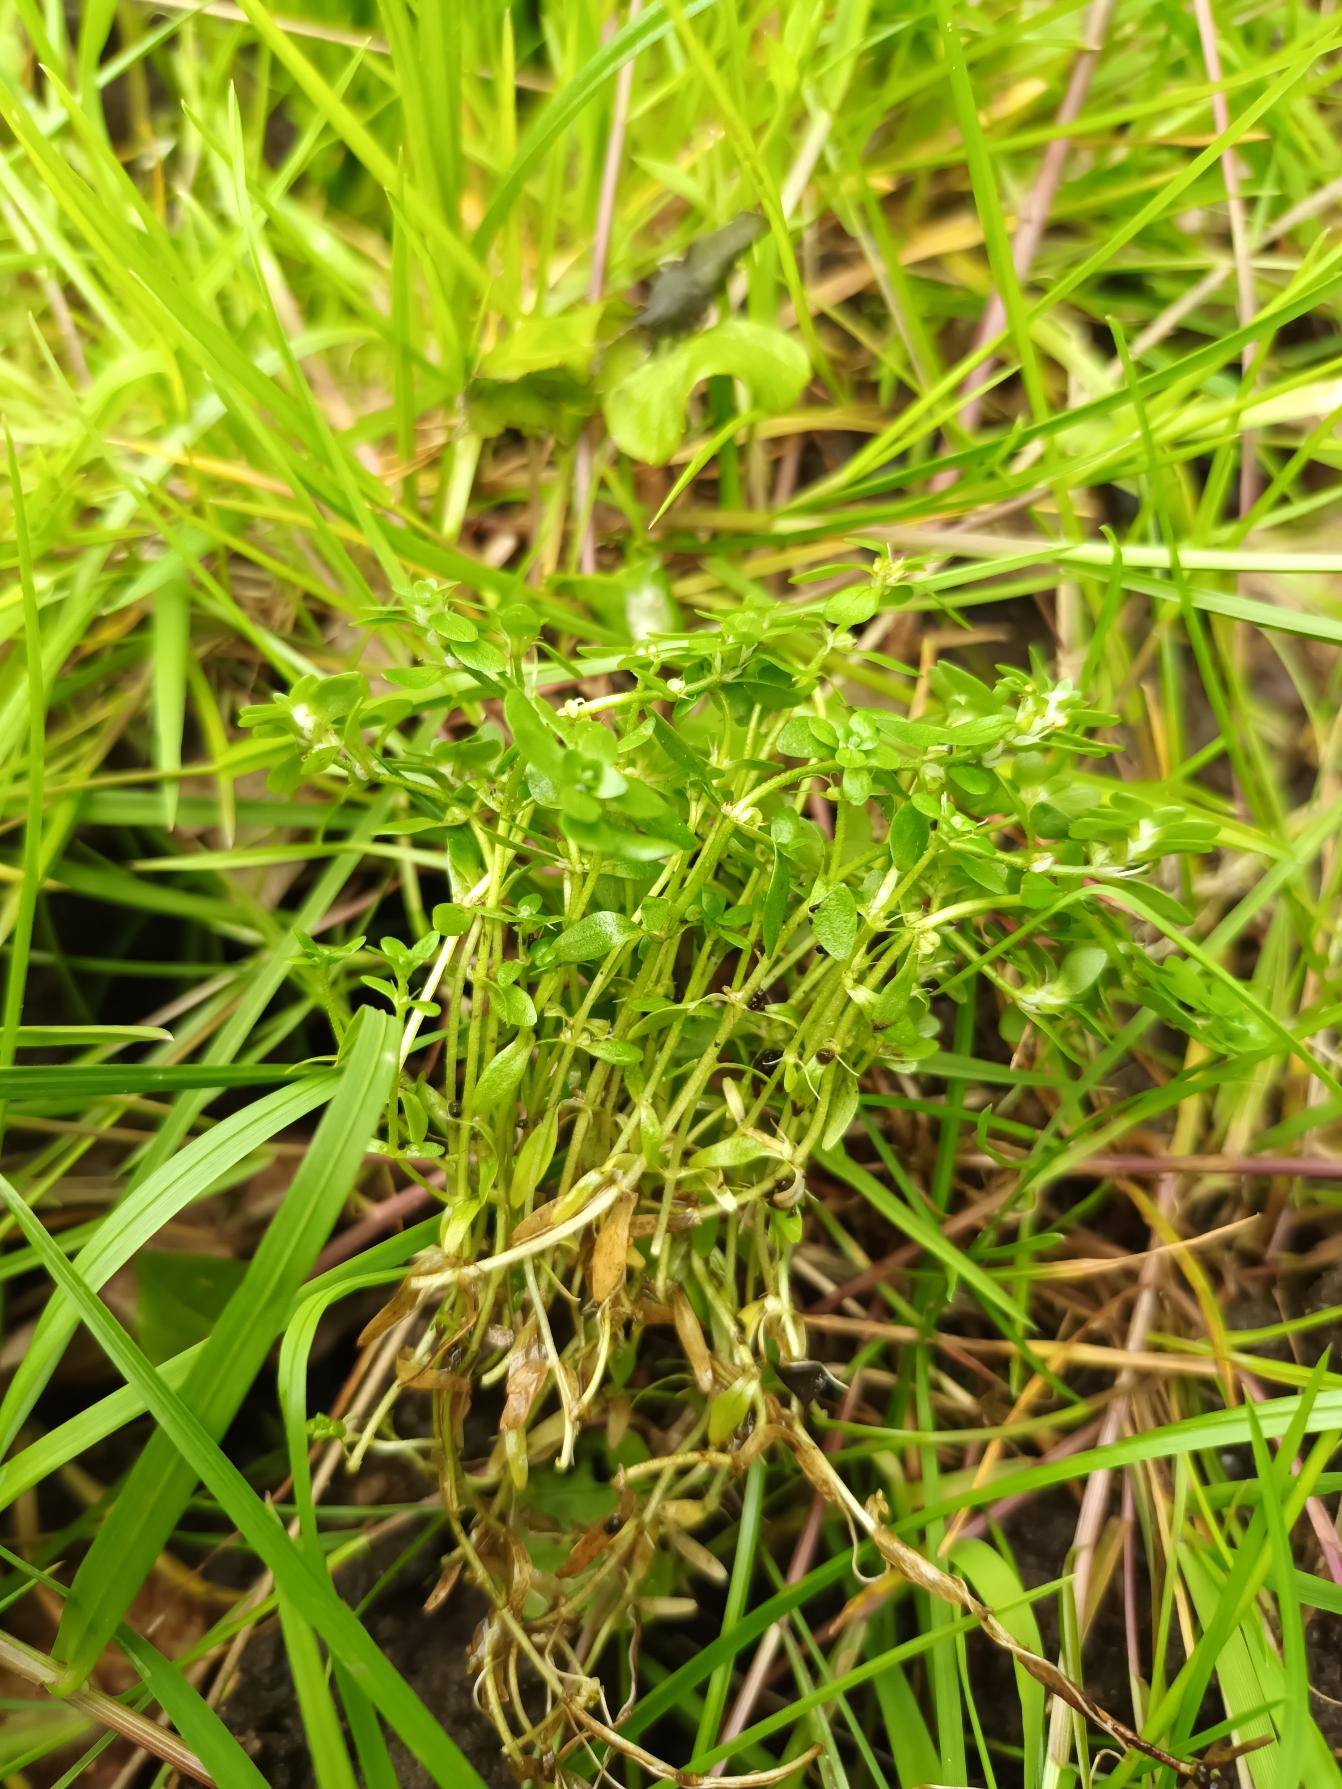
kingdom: Plantae
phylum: Tracheophyta
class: Magnoliopsida
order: Lamiales
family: Plantaginaceae
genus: Callitriche
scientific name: Callitriche platycarpa
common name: Fladfrugtet vandstjerne
